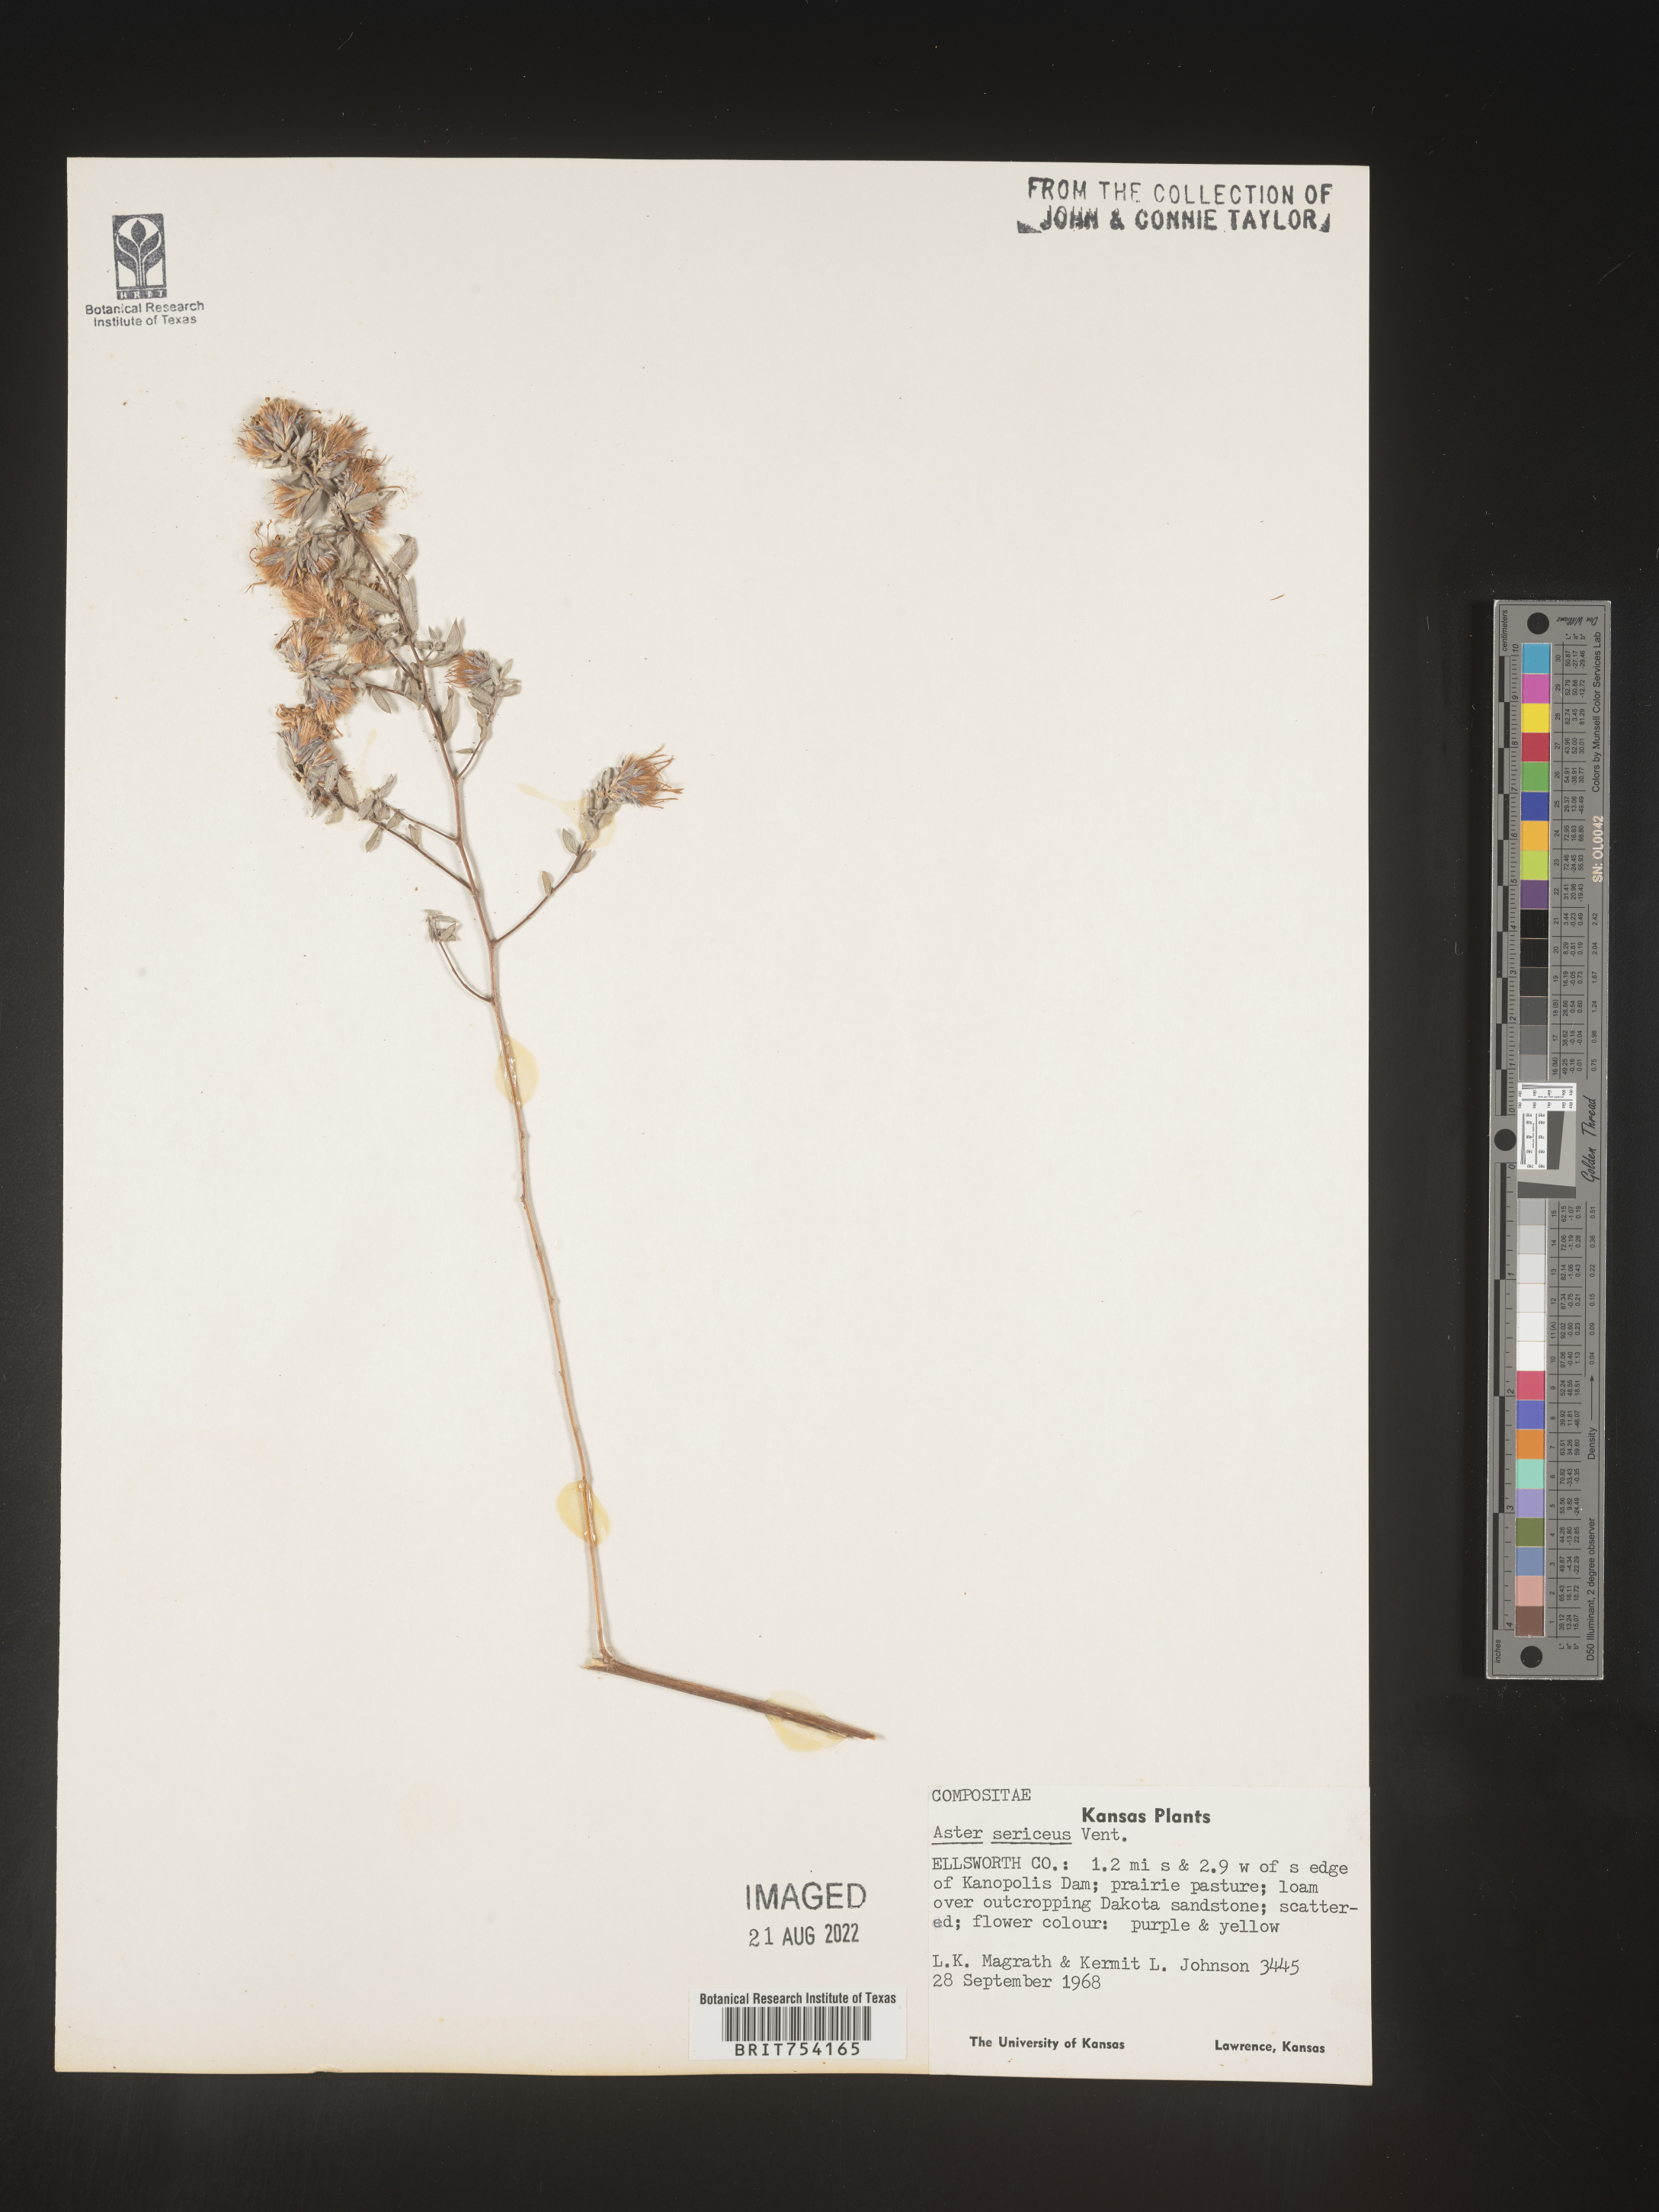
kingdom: Plantae
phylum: Tracheophyta
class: Magnoliopsida
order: Asterales
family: Asteraceae
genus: Symphyotrichum
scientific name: Symphyotrichum sericeum
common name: Silky aster
